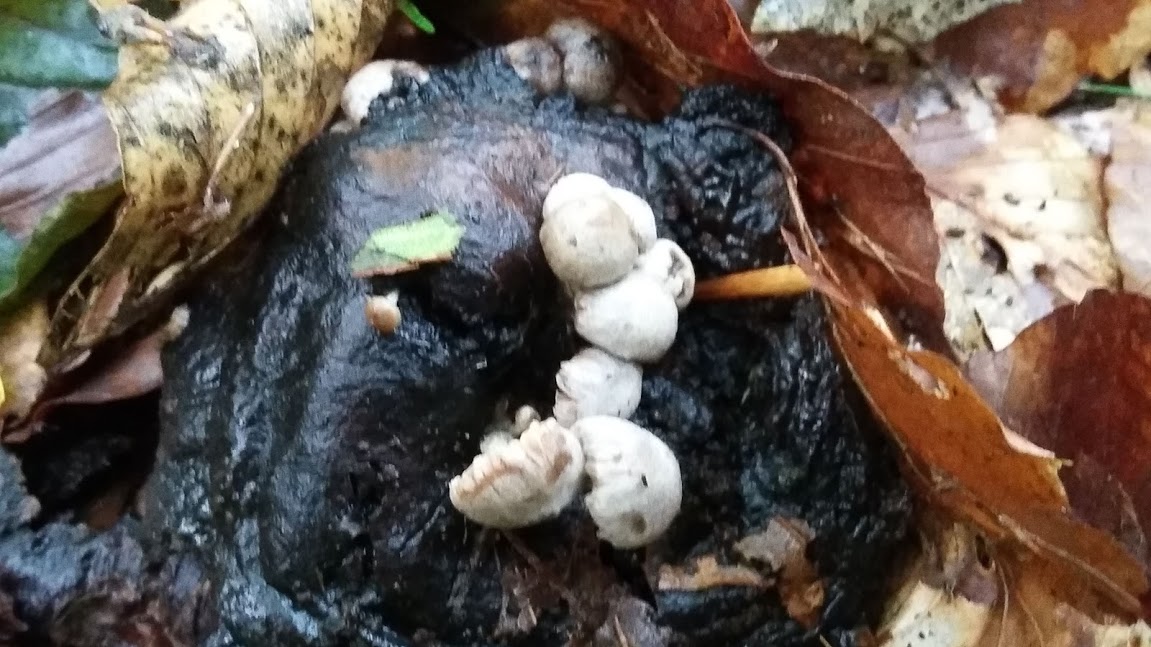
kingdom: Fungi
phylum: Basidiomycota
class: Agaricomycetes
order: Agaricales
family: Lyophyllaceae
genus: Asterophora
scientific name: Asterophora lycoperdoides
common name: brunpudret snyltehat
